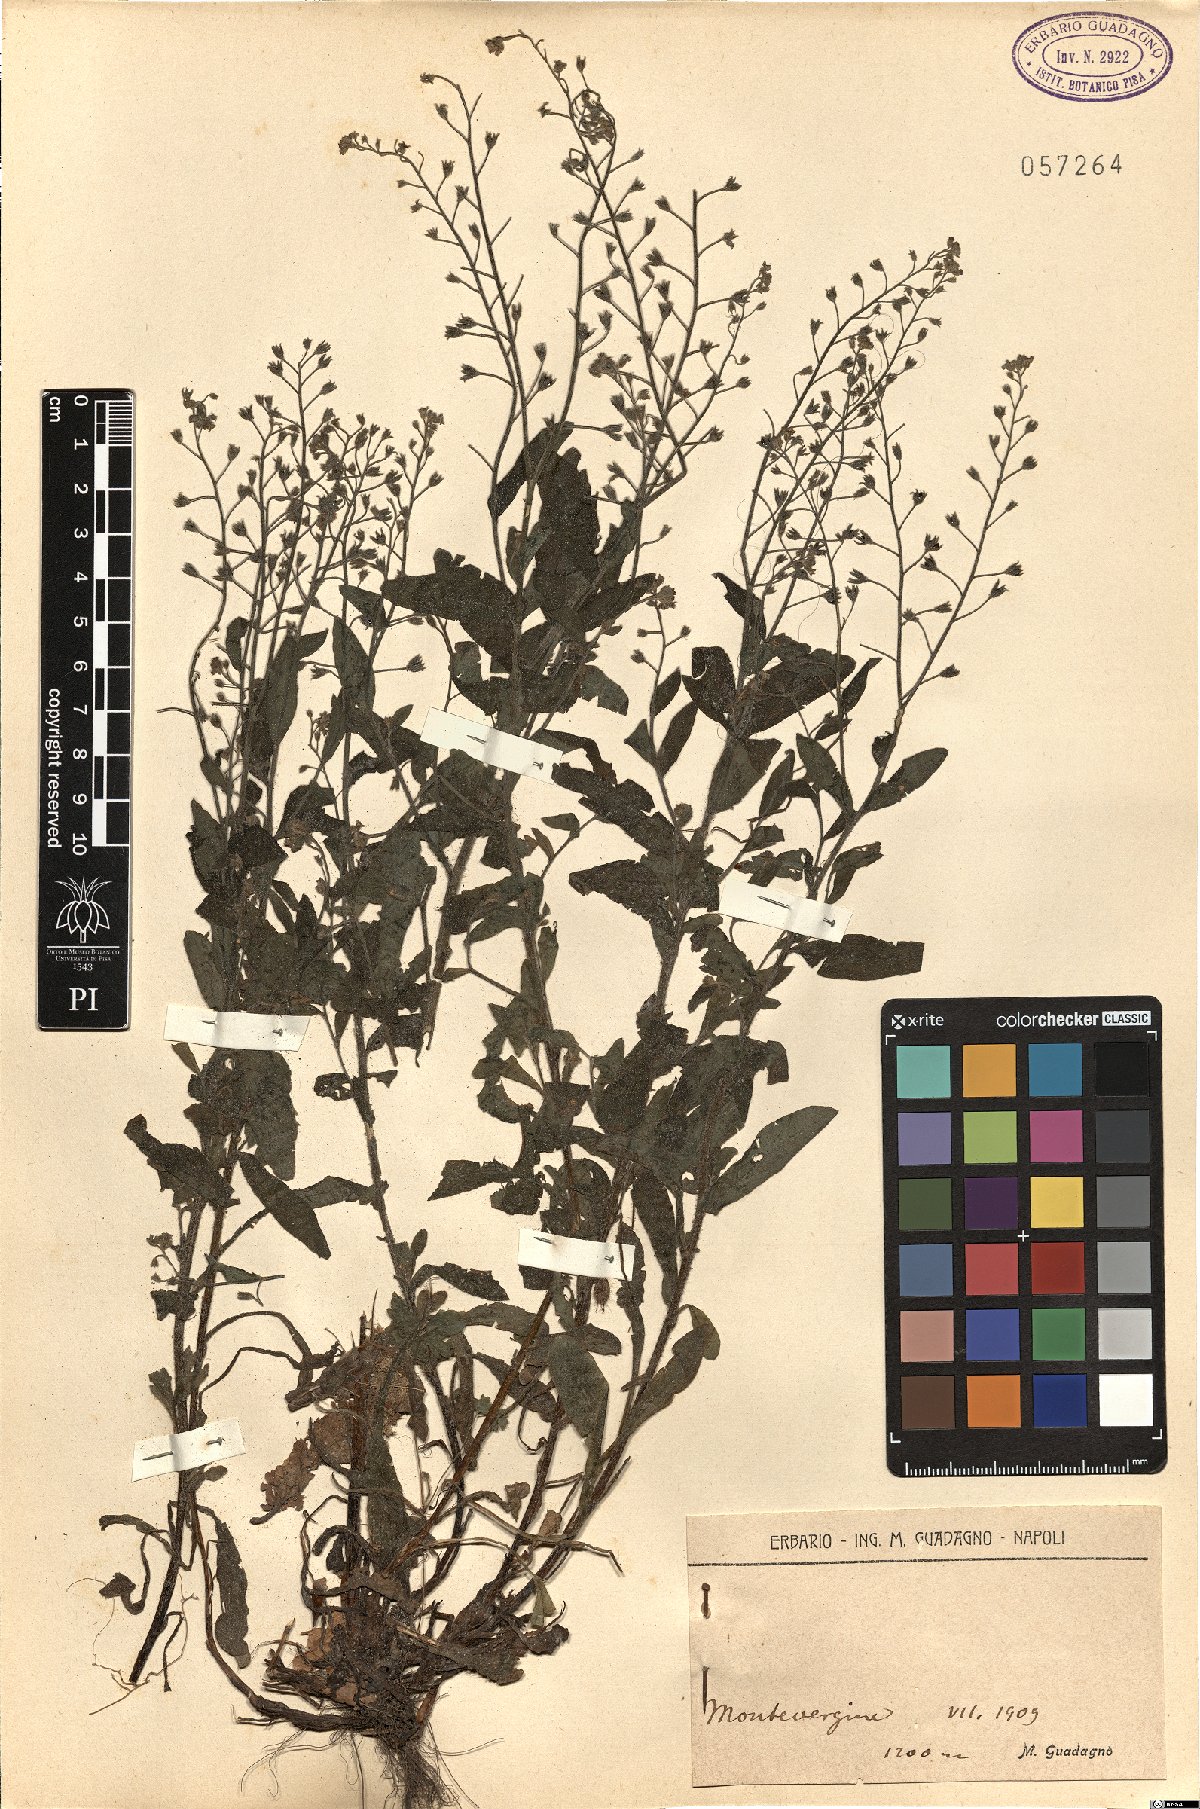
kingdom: Plantae
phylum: Tracheophyta
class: Magnoliopsida
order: Boraginales
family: Boraginaceae
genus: Myosotis
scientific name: Myosotis
